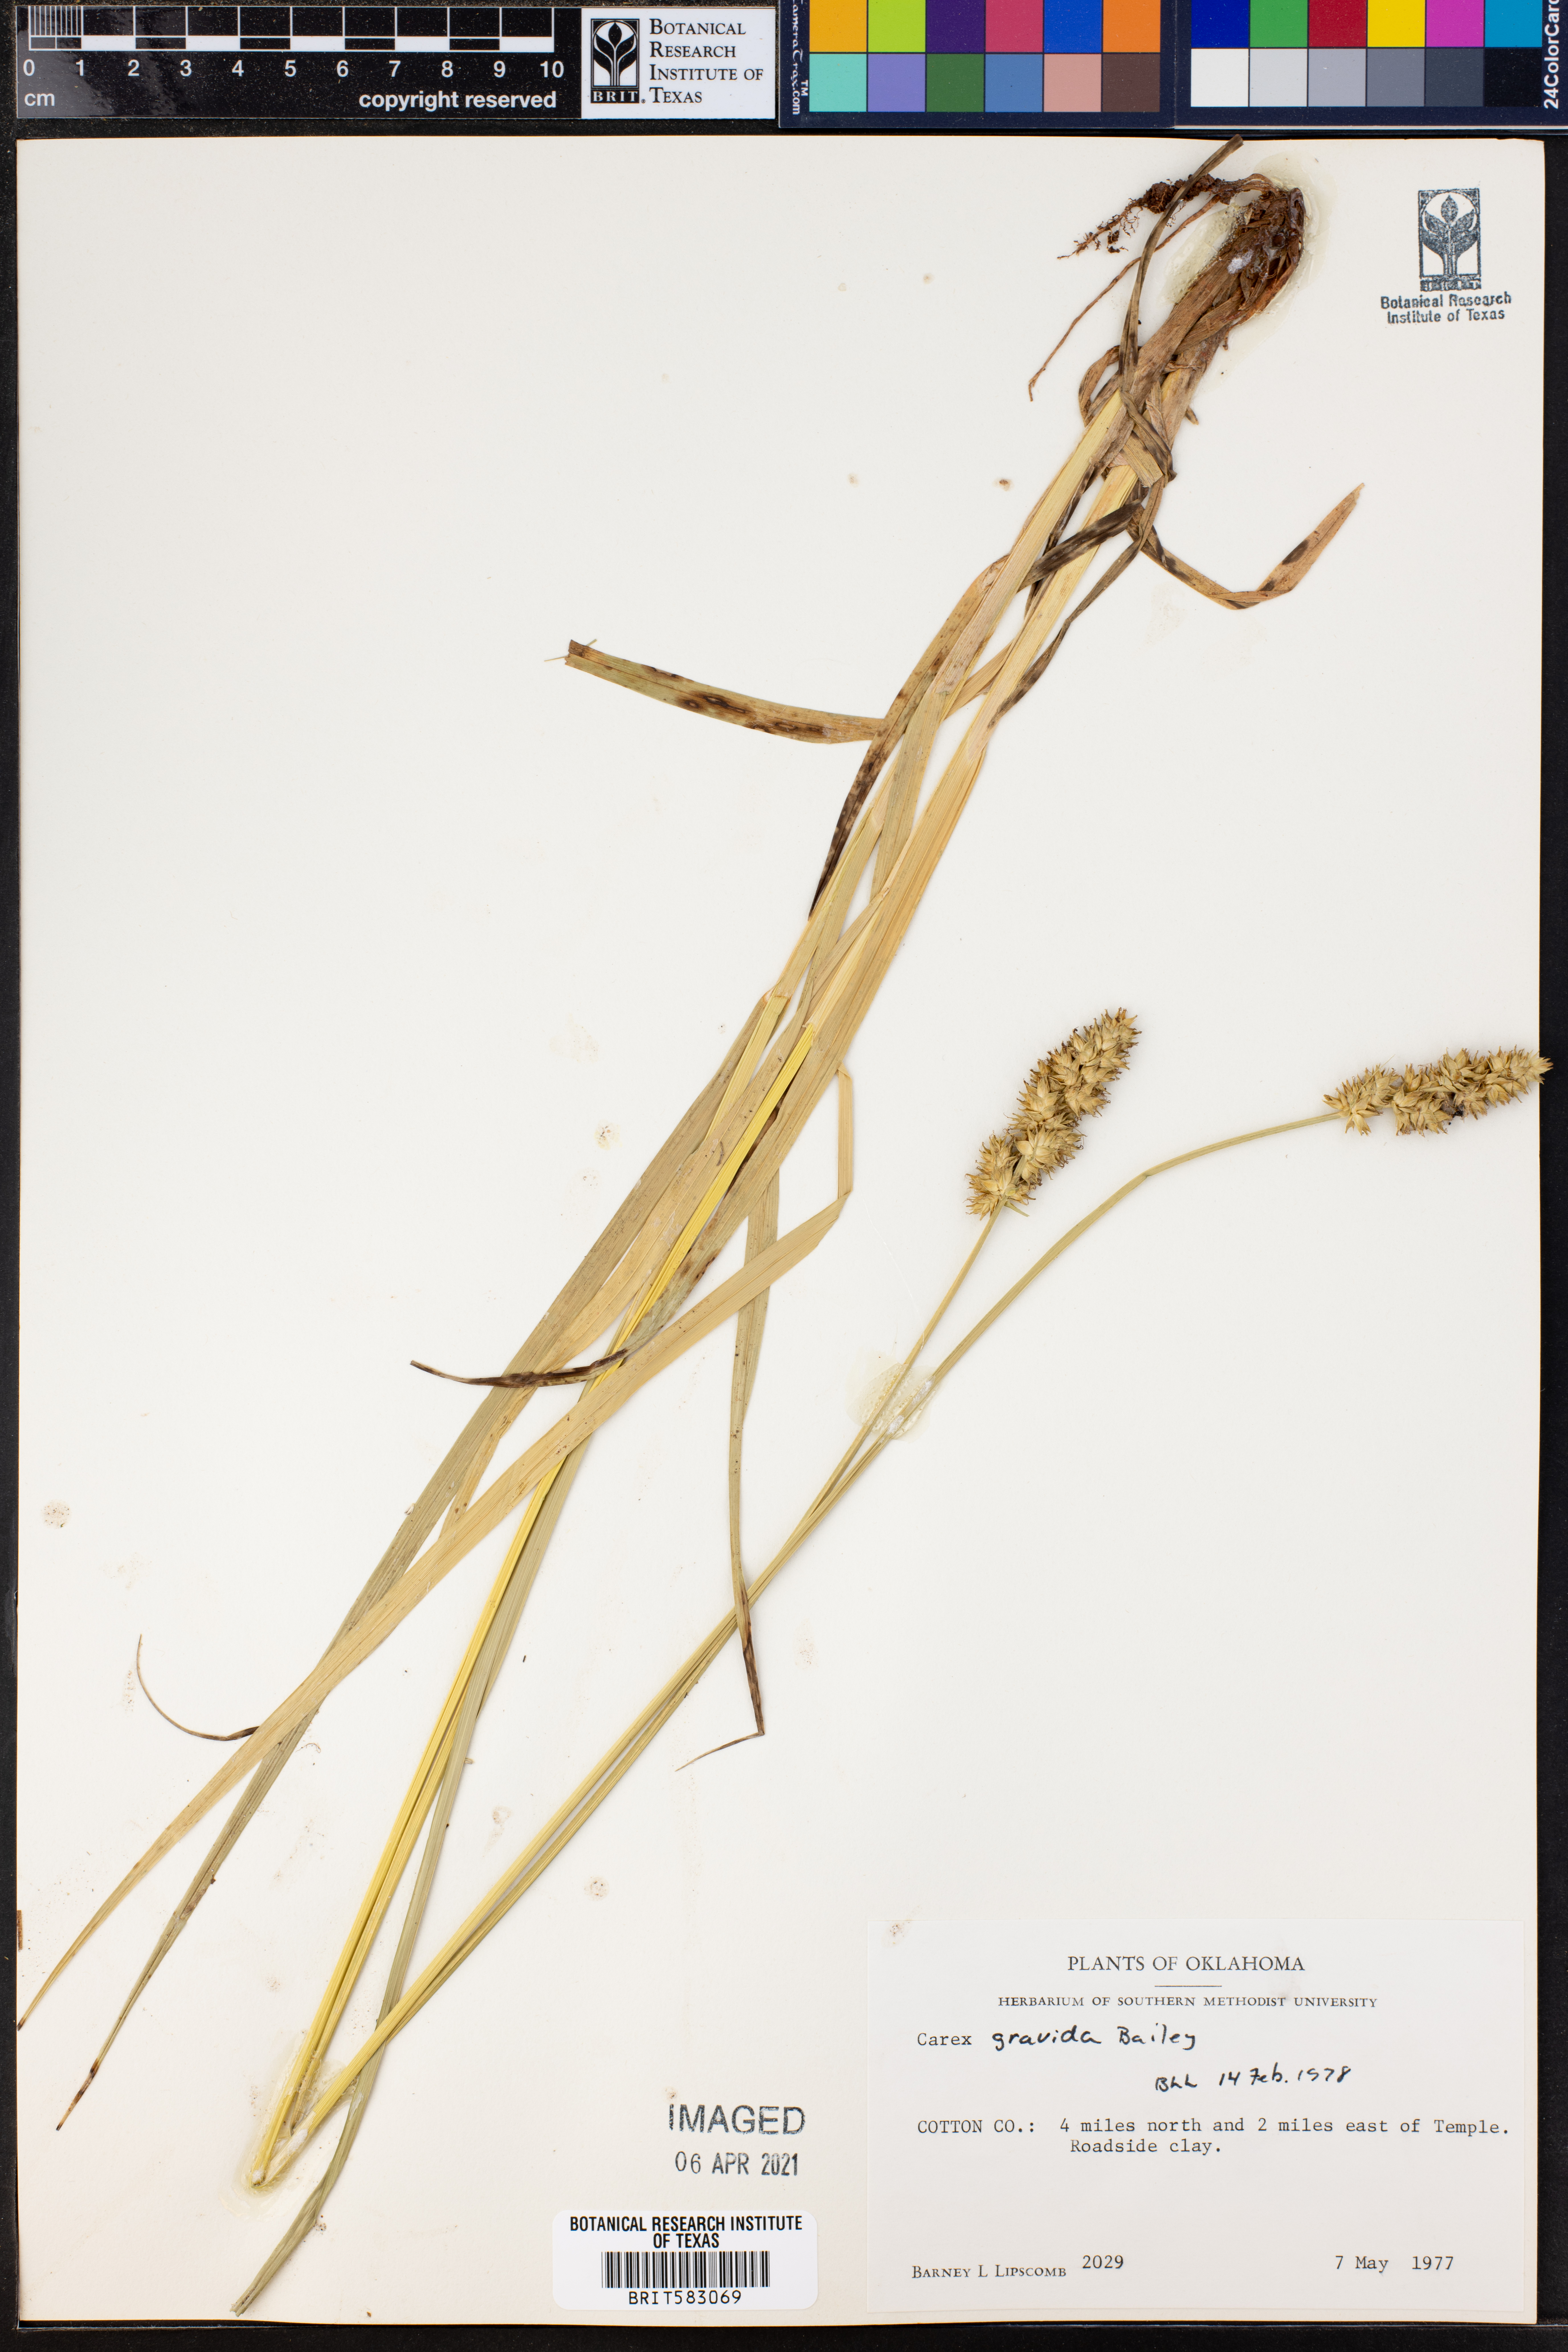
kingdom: Plantae
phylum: Tracheophyta
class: Liliopsida
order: Poales
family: Cyperaceae
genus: Carex
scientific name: Carex gravida
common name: Heavy sedge
